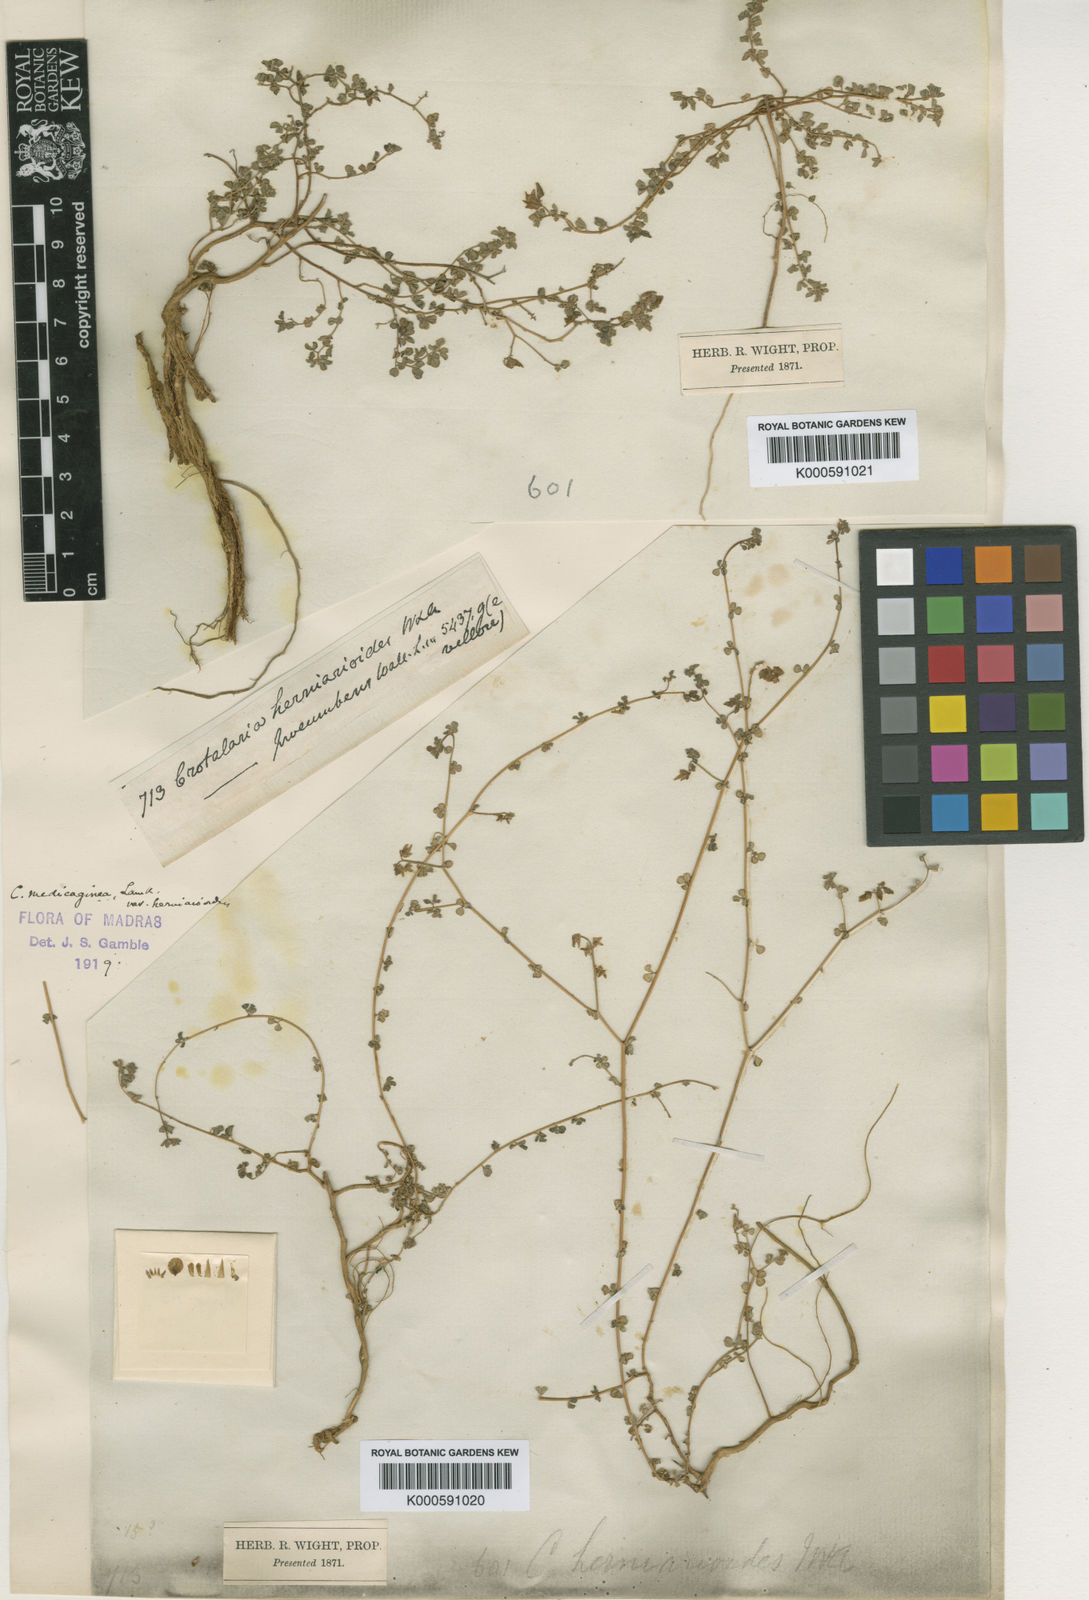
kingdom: Plantae
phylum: Tracheophyta
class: Magnoliopsida
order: Fabales
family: Fabaceae
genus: Crotalaria
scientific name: Crotalaria trifoliastrum
